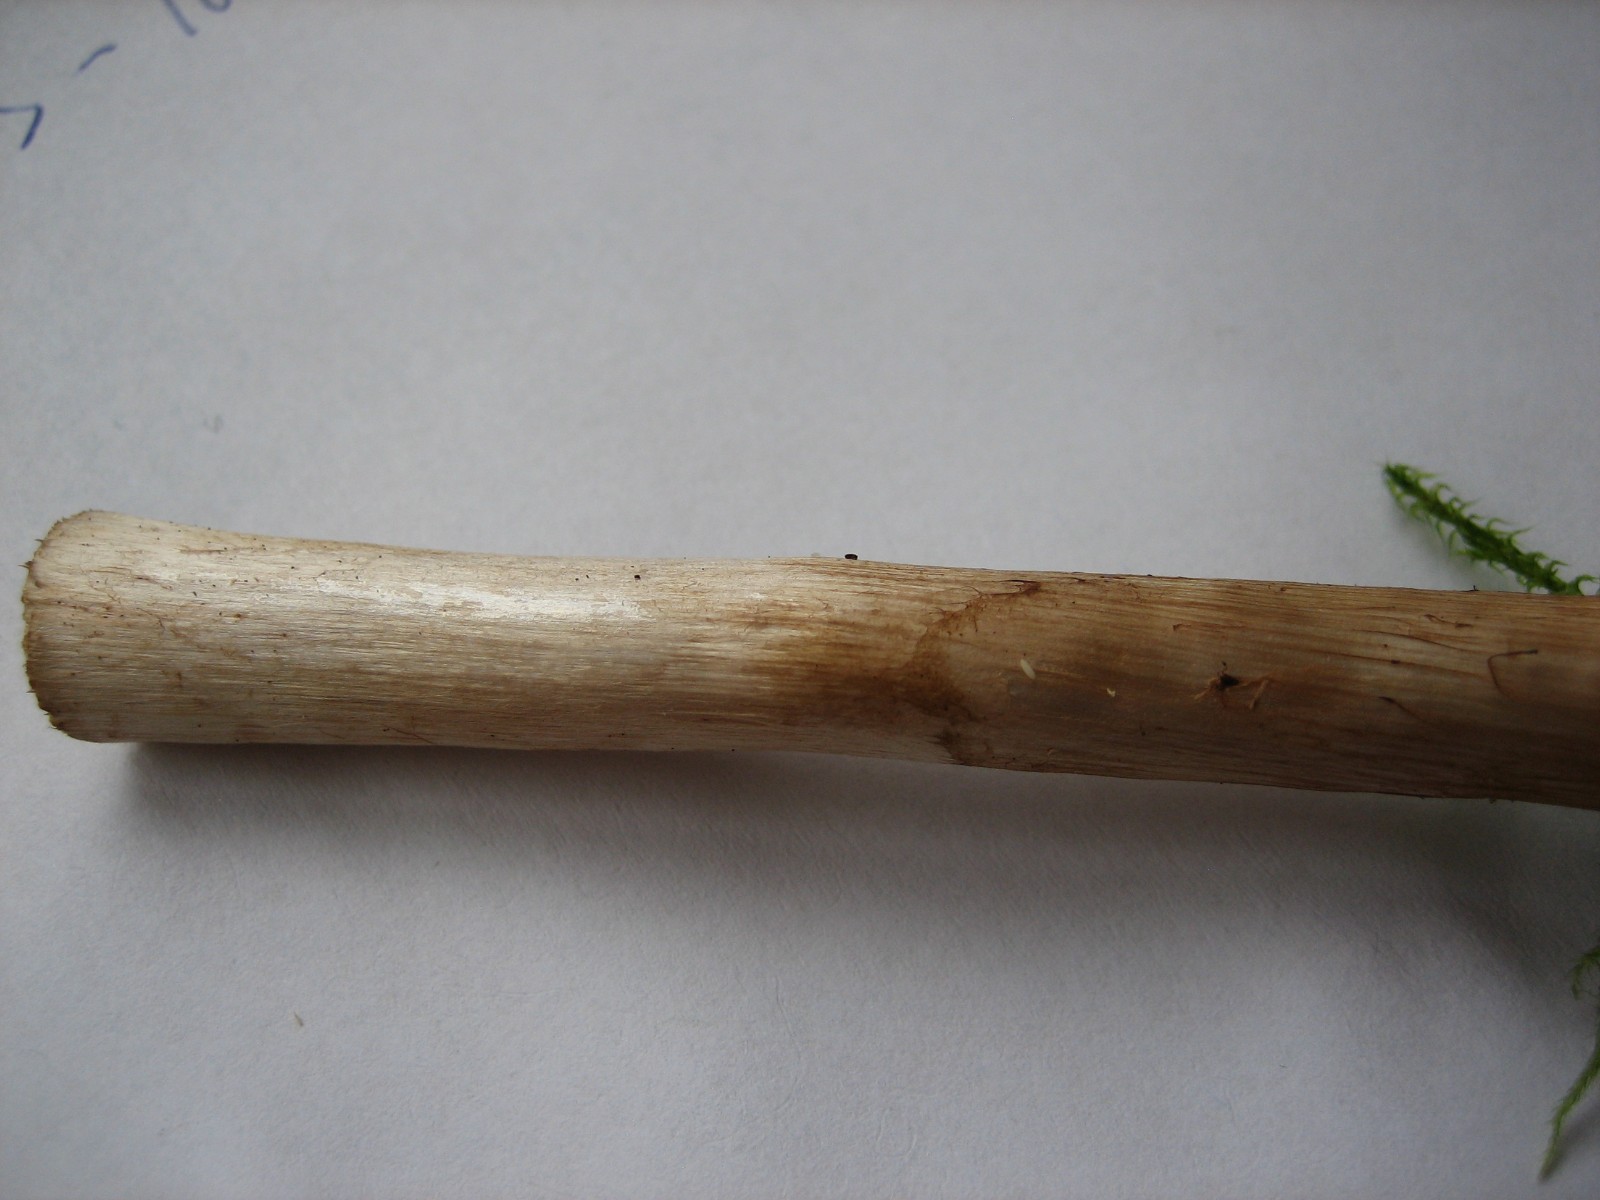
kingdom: Fungi
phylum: Basidiomycota
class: Agaricomycetes
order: Agaricales
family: Cortinariaceae
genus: Cortinarius
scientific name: Cortinarius
